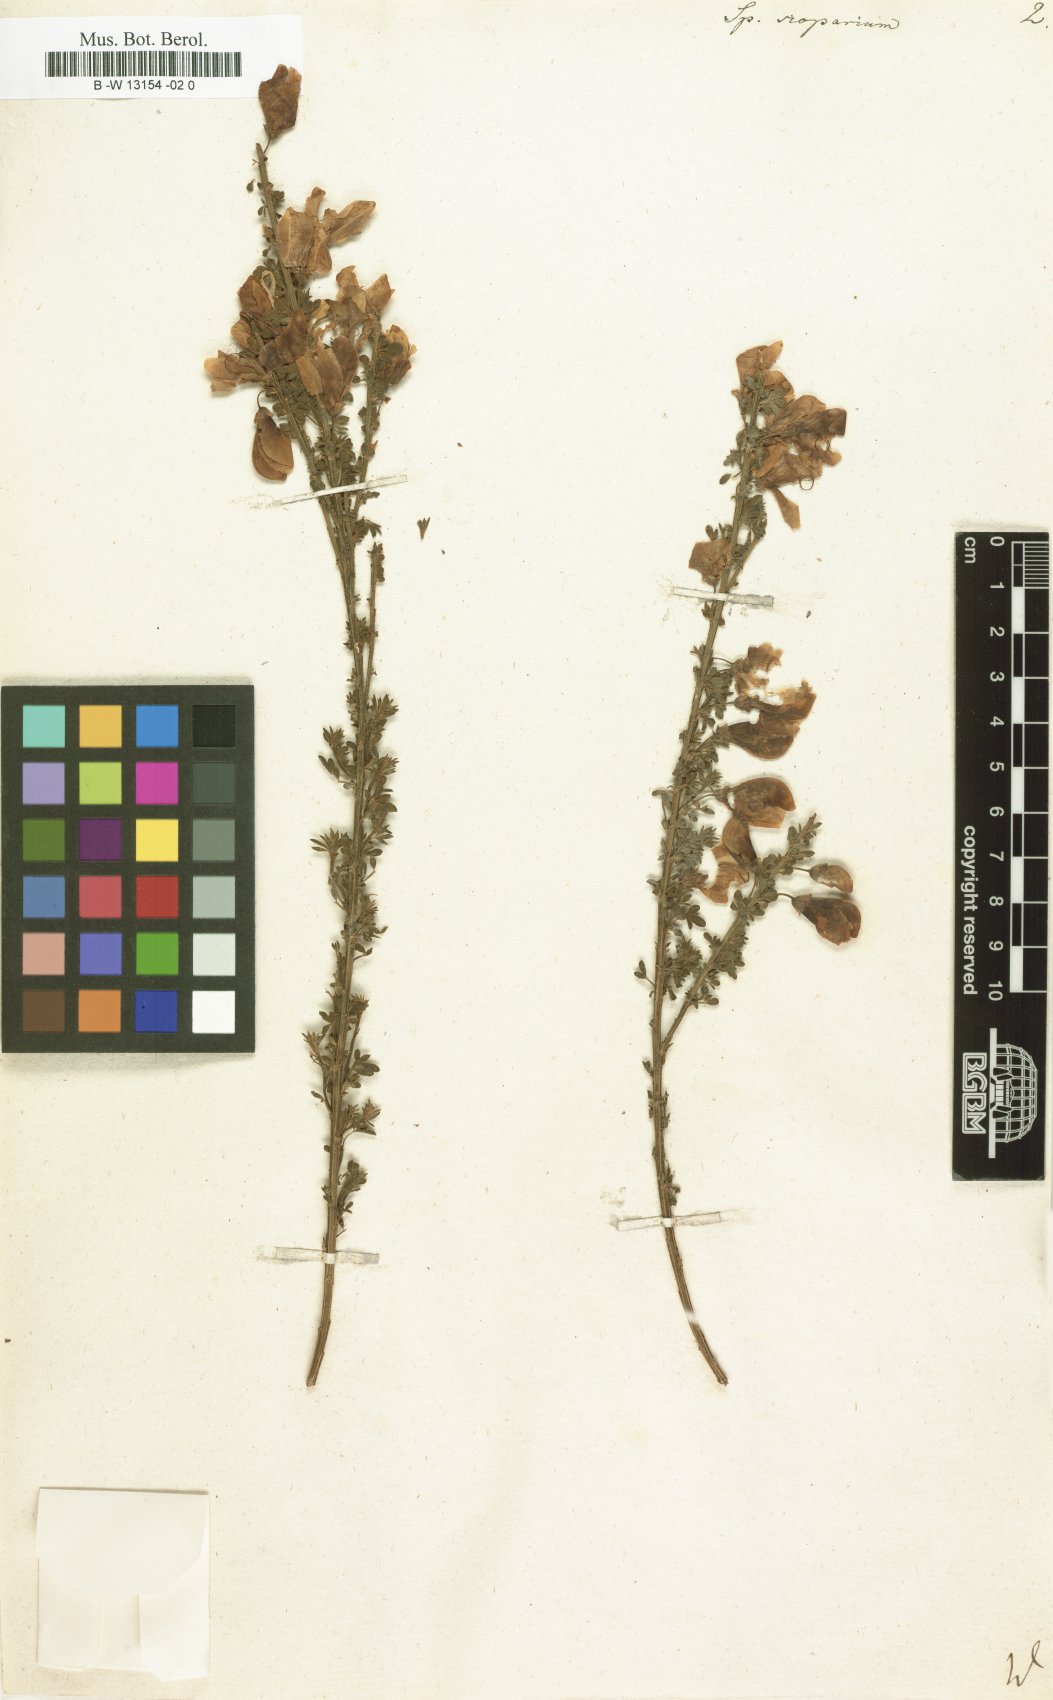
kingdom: Plantae
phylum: Tracheophyta
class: Magnoliopsida
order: Fabales
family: Fabaceae
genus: Lebeckia
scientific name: Lebeckia sepiaria
